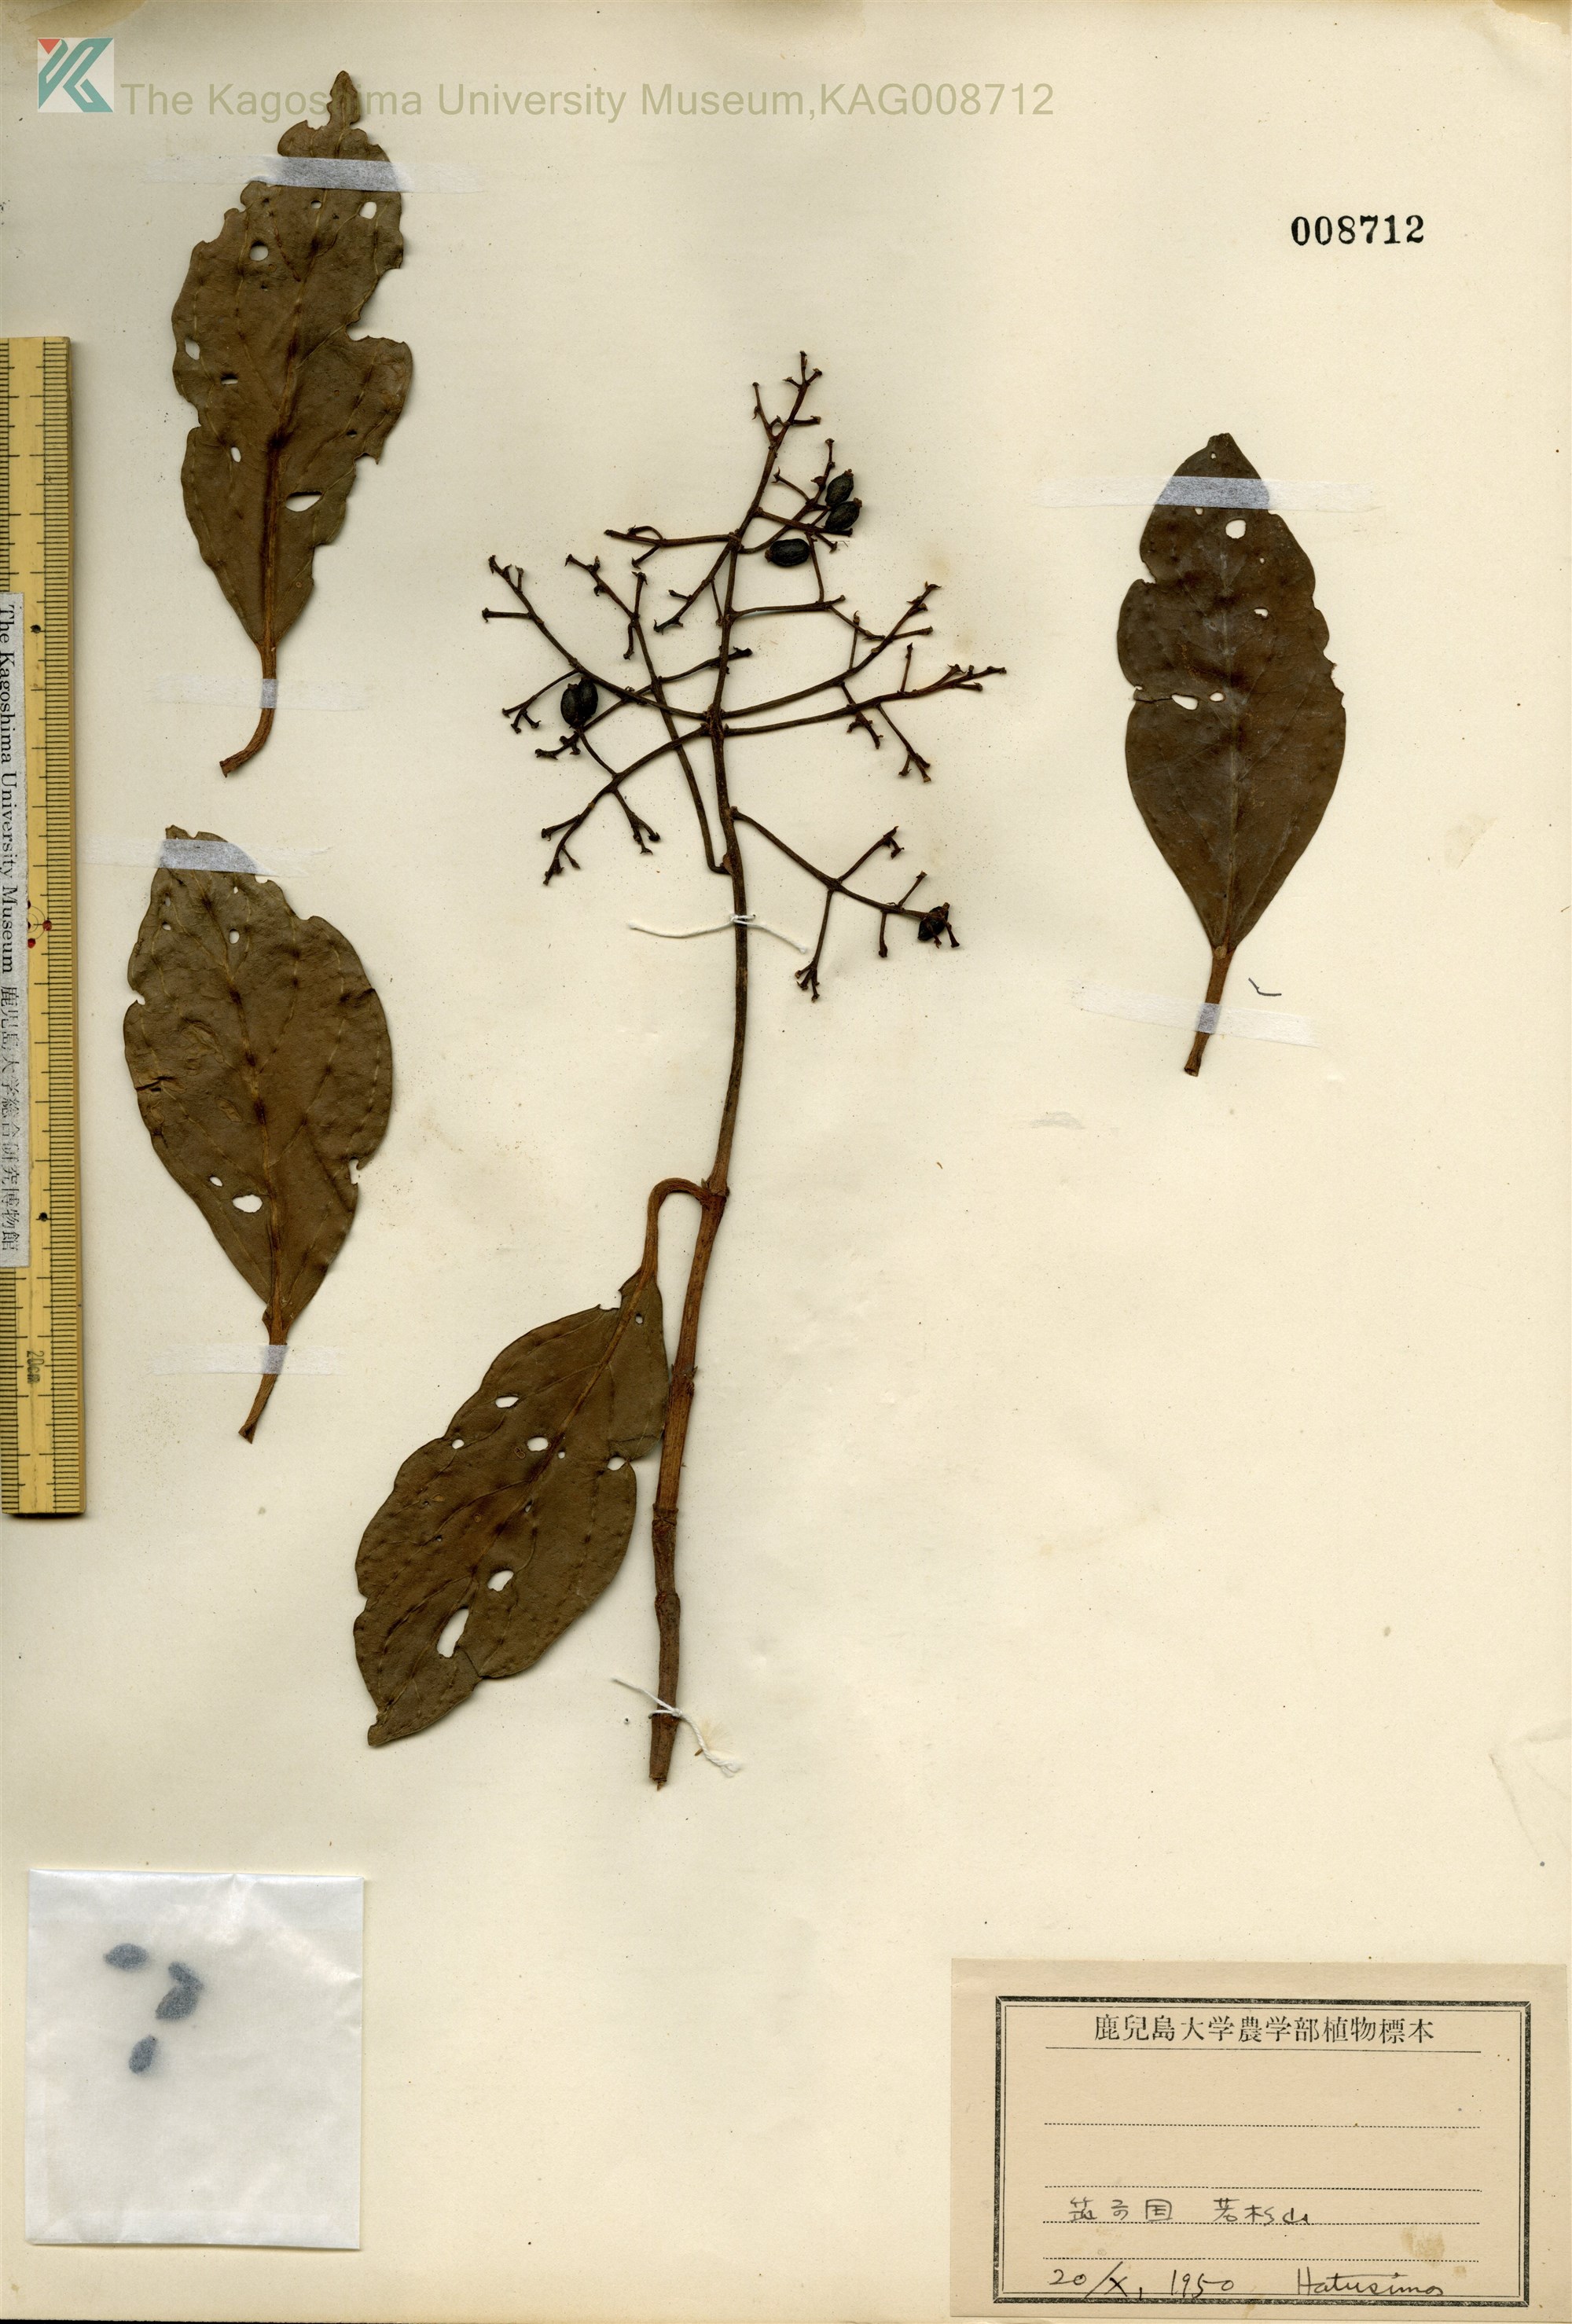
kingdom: Plantae
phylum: Tracheophyta
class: Magnoliopsida
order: Dipsacales
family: Viburnaceae
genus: Viburnum
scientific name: Viburnum odoratissimum
